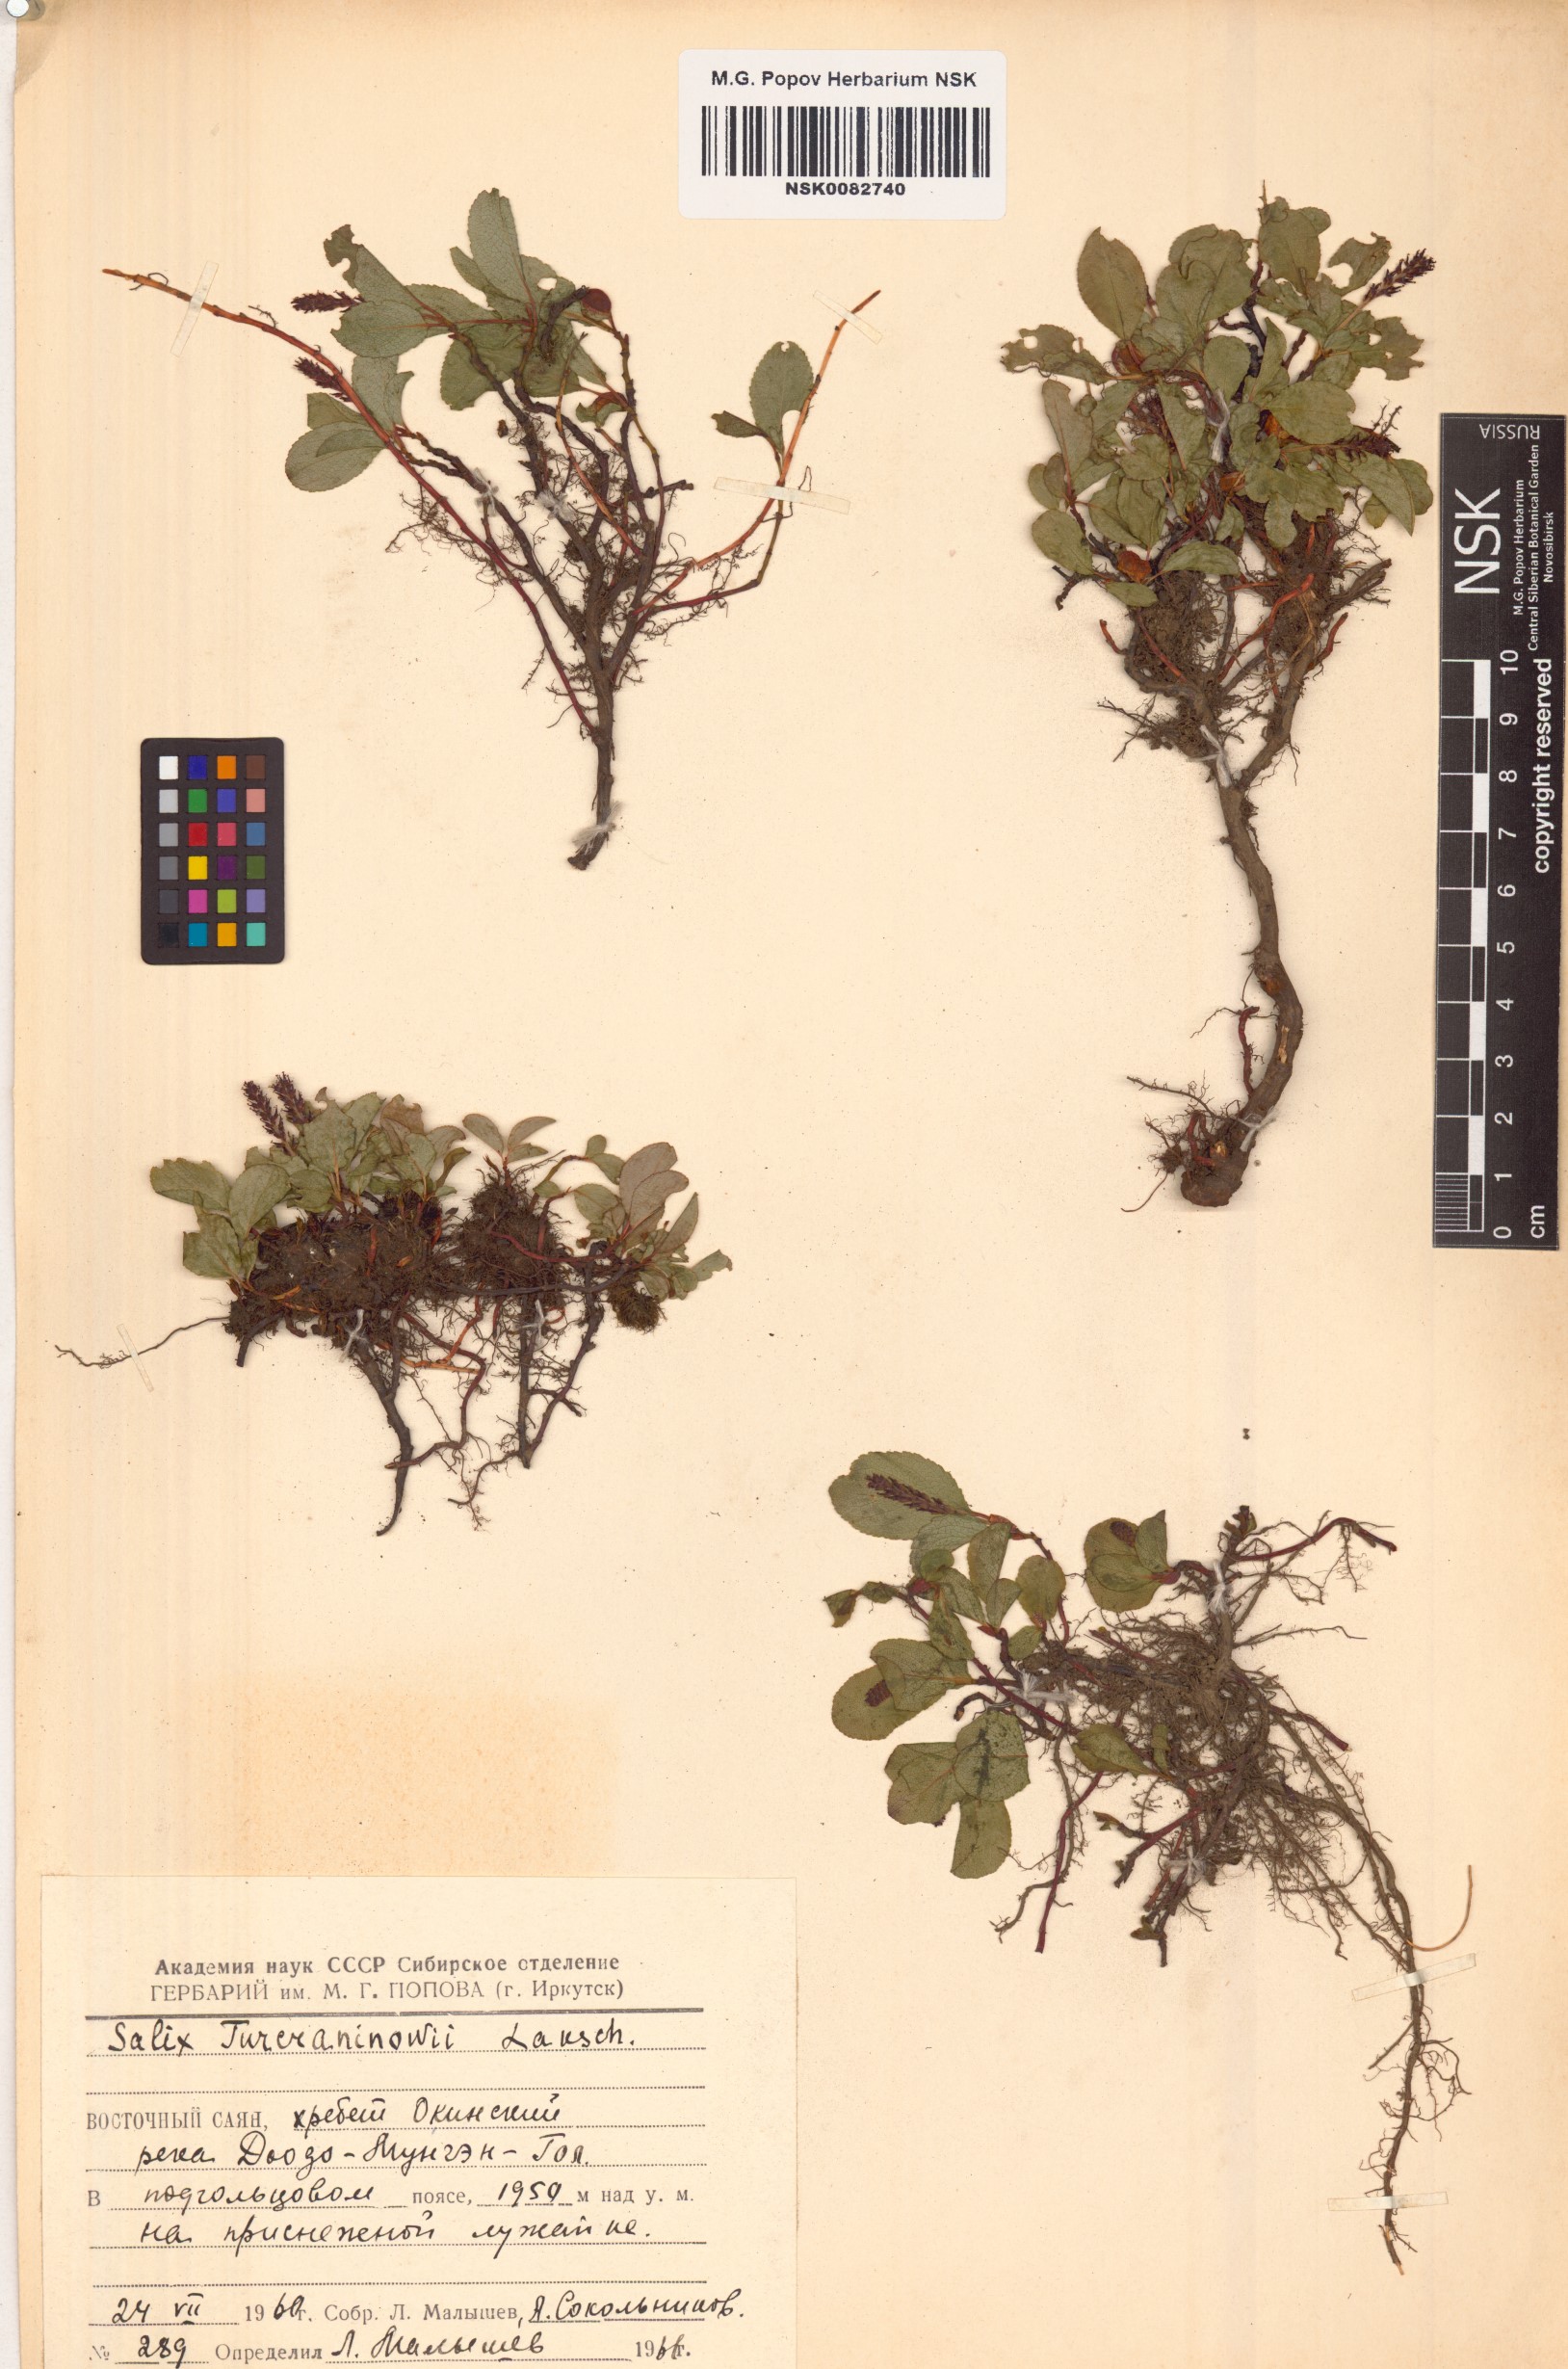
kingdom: Plantae
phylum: Tracheophyta
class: Magnoliopsida
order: Malpighiales
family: Salicaceae
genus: Salix
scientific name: Salix turczaninowii
